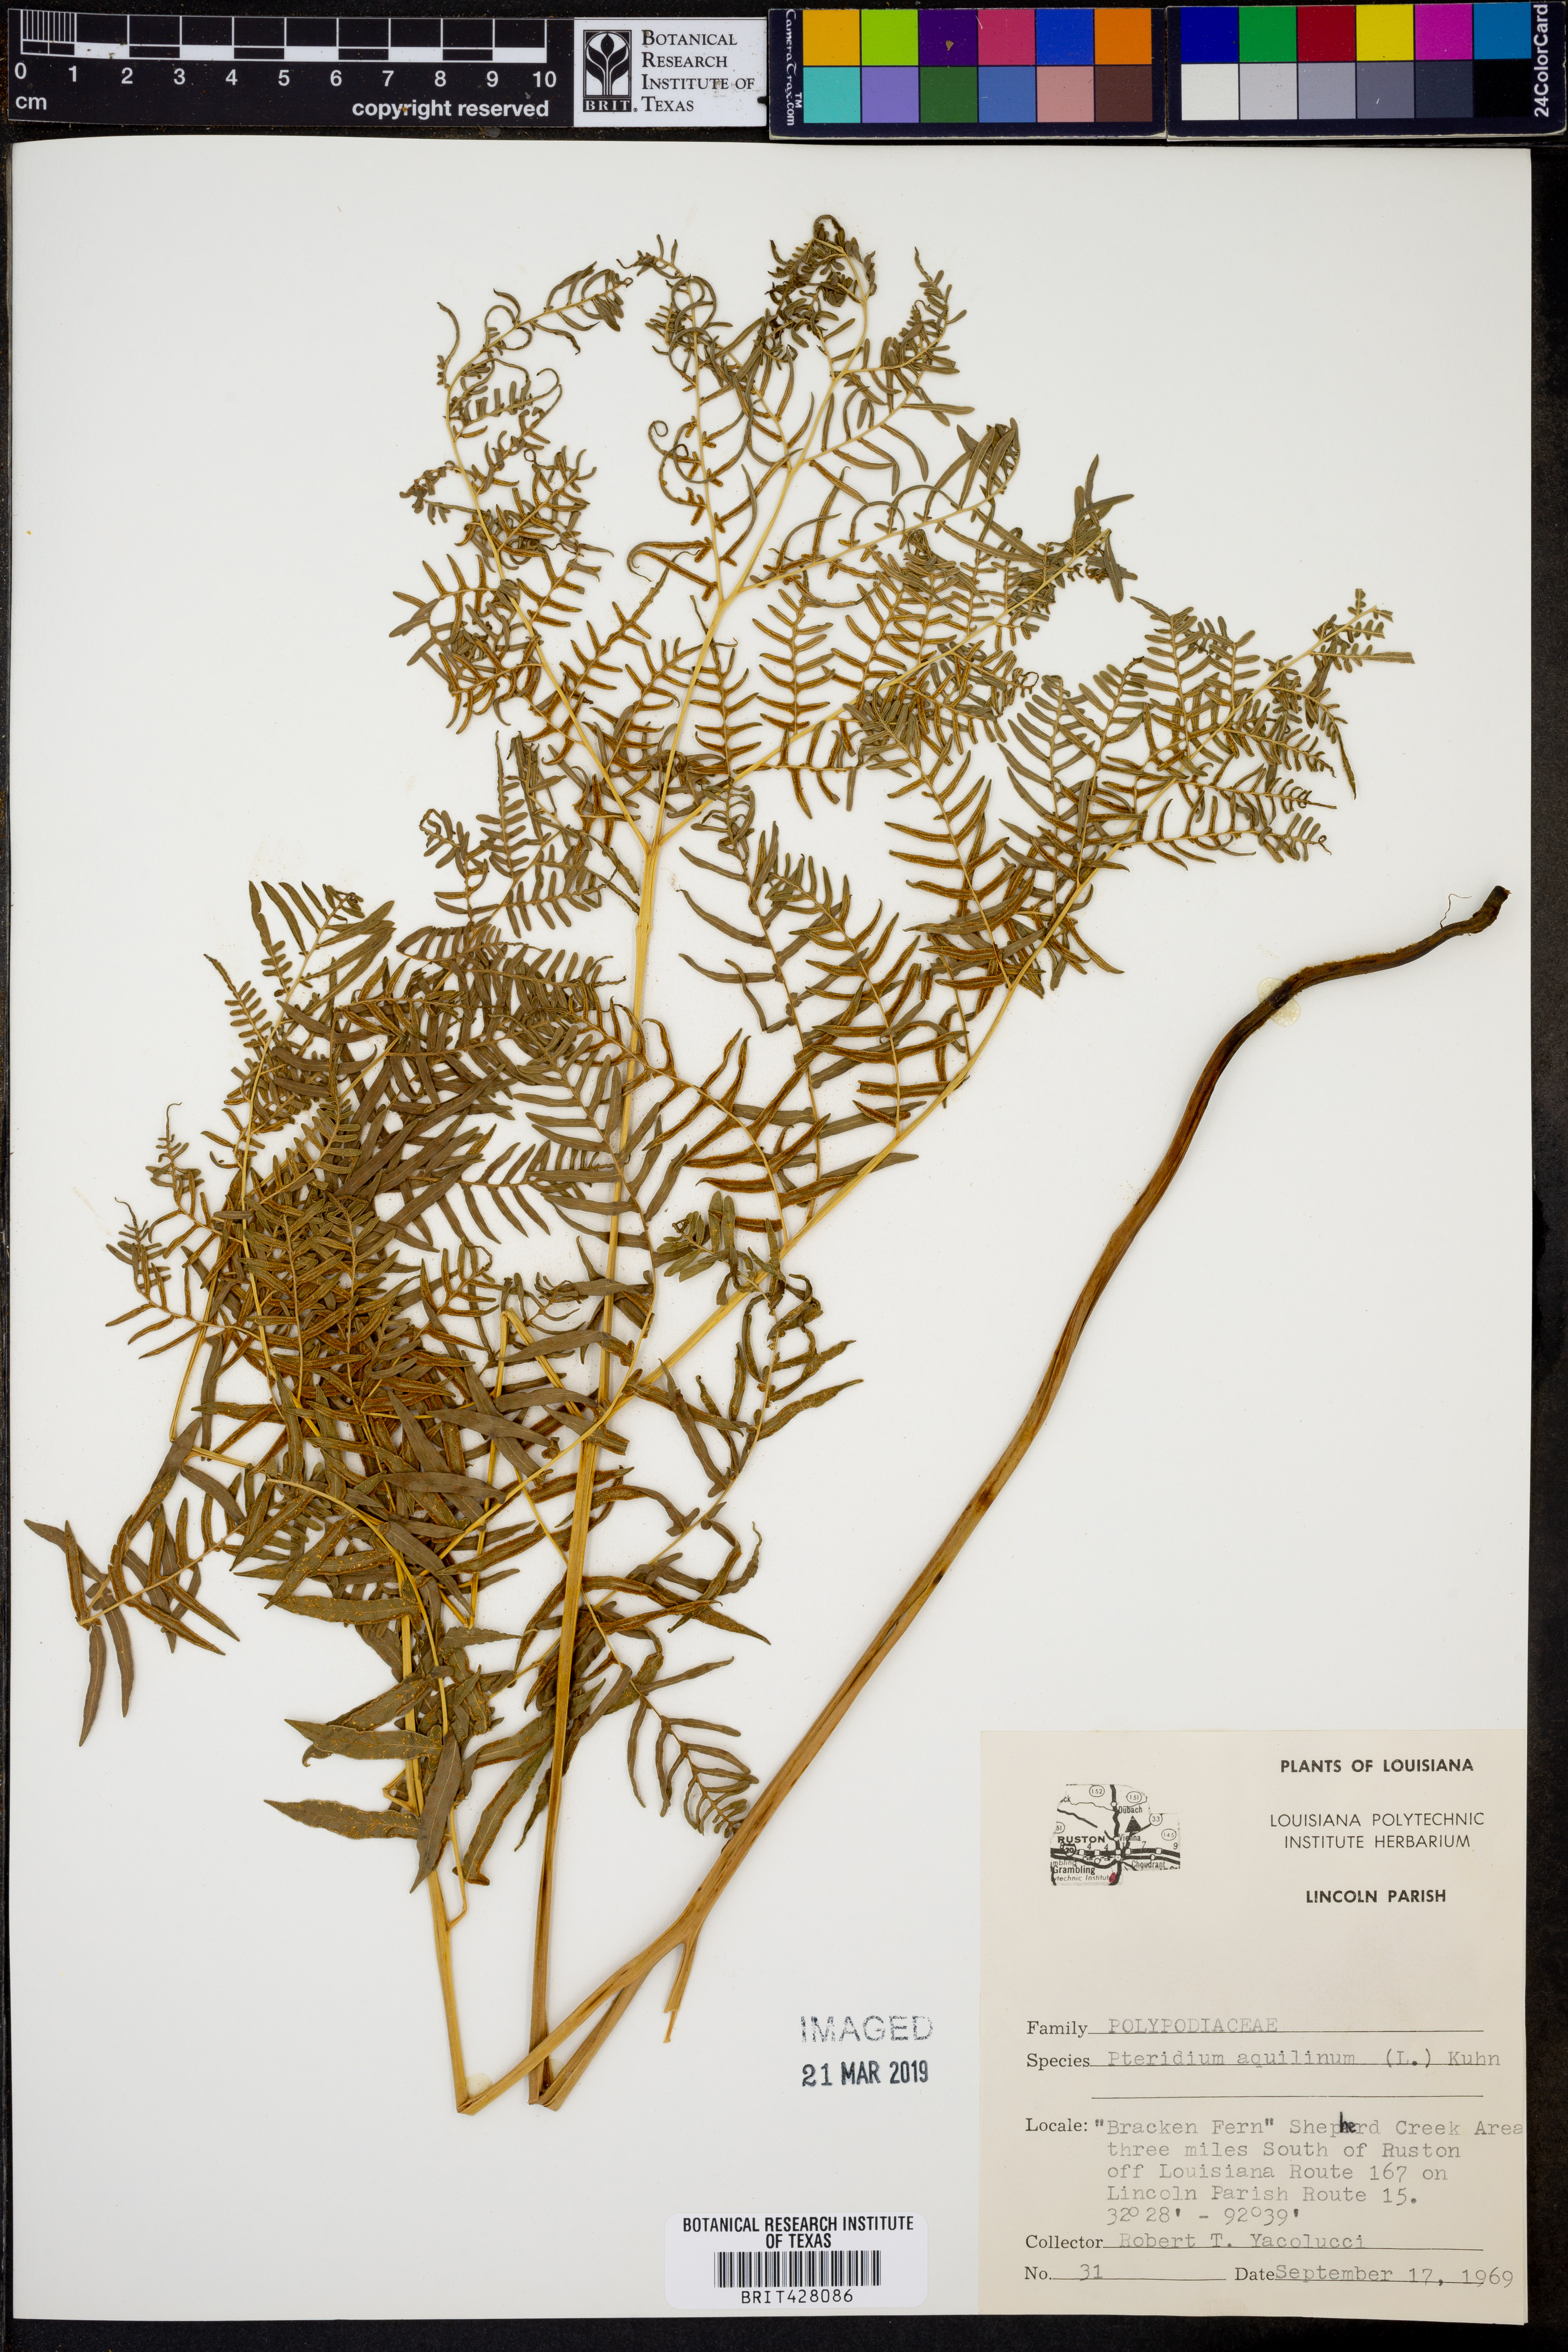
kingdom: Plantae
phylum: Tracheophyta
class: Polypodiopsida
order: Polypodiales
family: Dennstaedtiaceae
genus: Pteridium
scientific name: Pteridium aquilinum
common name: Bracken
